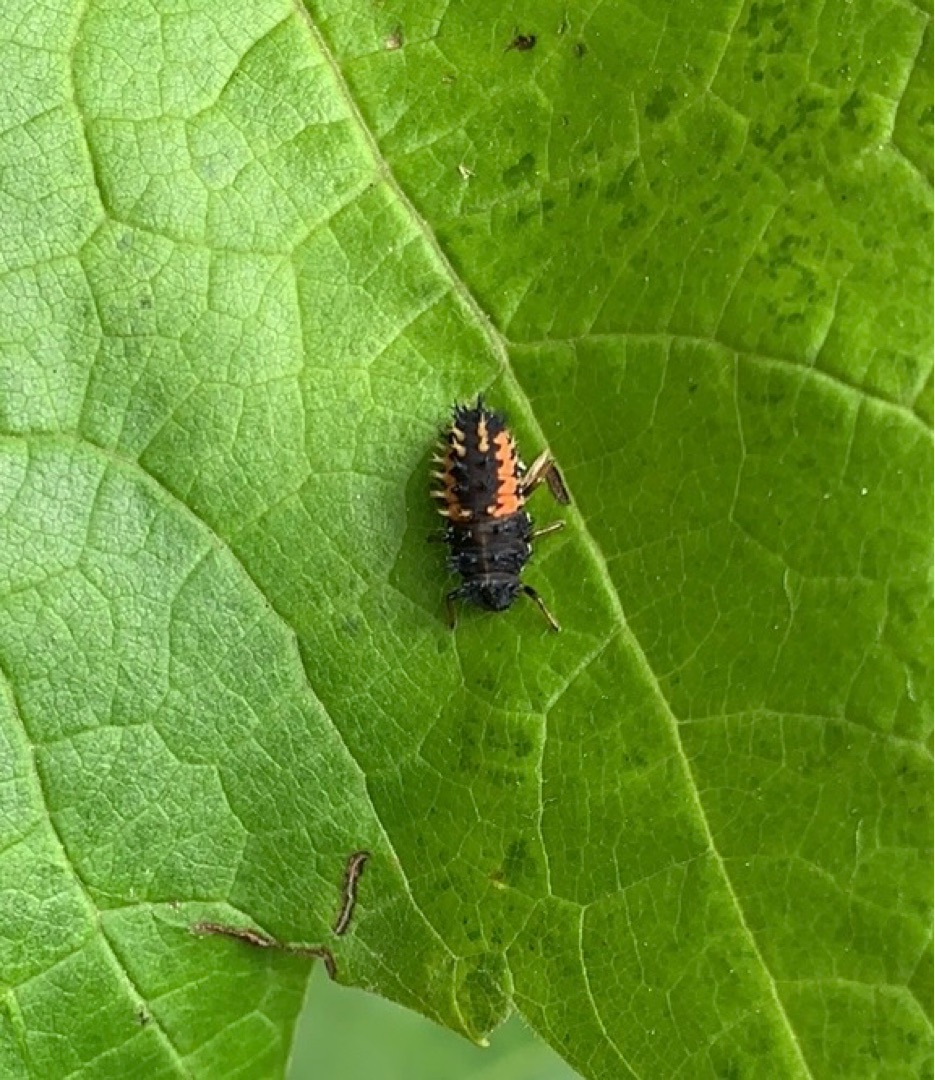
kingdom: Animalia
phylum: Arthropoda
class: Insecta
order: Coleoptera
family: Coccinellidae
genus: Harmonia
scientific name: Harmonia axyridis
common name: Harlekinmariehøne
